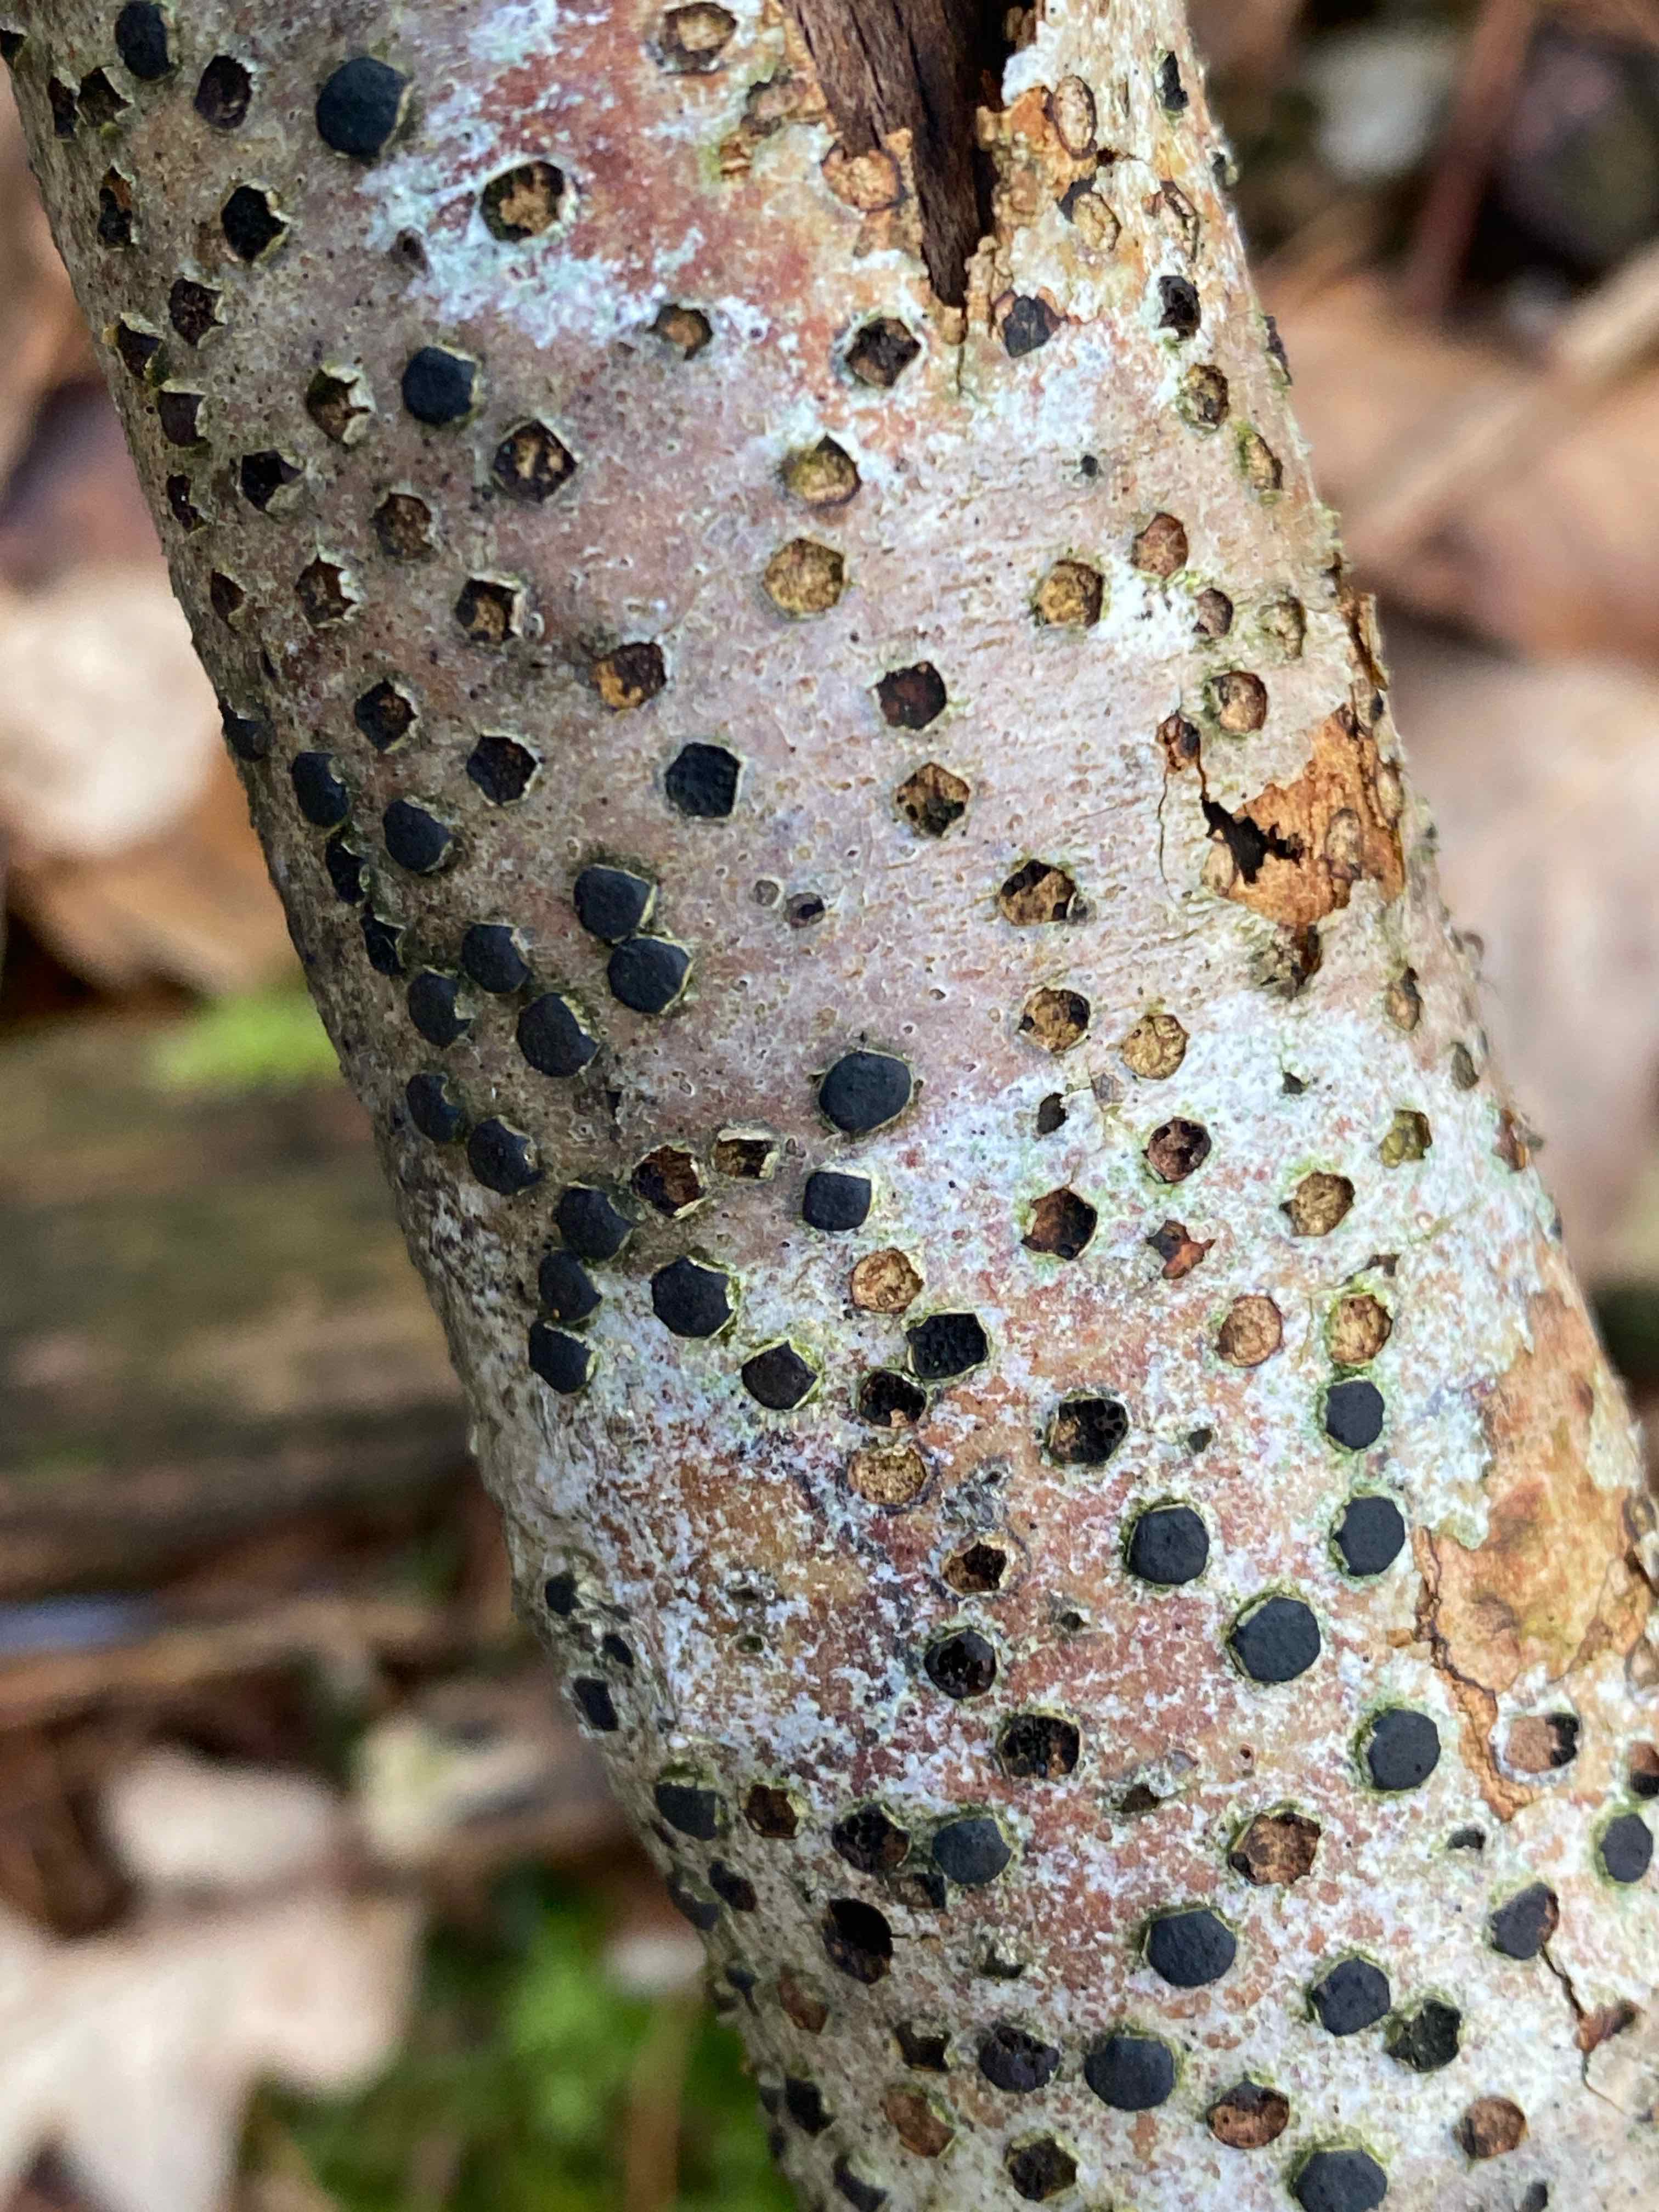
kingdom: Fungi
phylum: Ascomycota
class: Sordariomycetes
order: Xylariales
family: Diatrypaceae
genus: Diatrype
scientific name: Diatrype disciformis
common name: kant-kulskorpe
